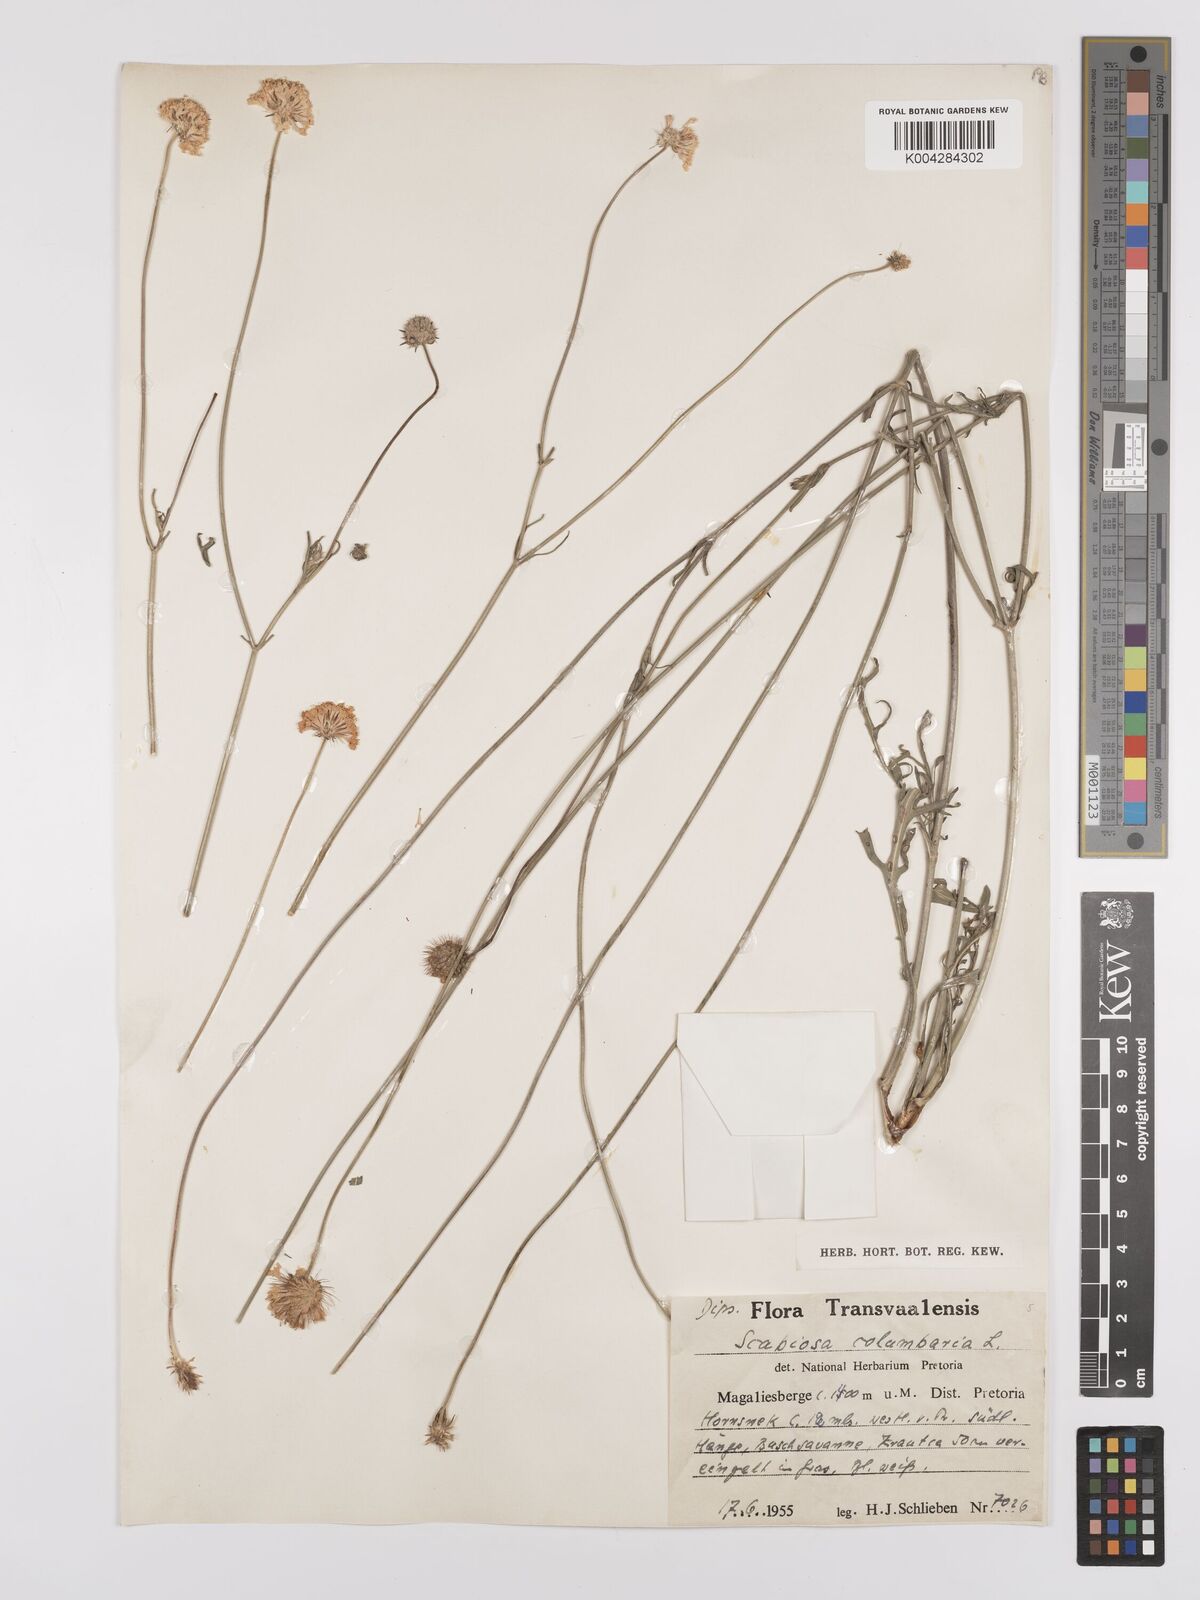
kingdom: Plantae
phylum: Tracheophyta
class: Magnoliopsida
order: Dipsacales
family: Caprifoliaceae
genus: Scabiosa
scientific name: Scabiosa austroafricana
